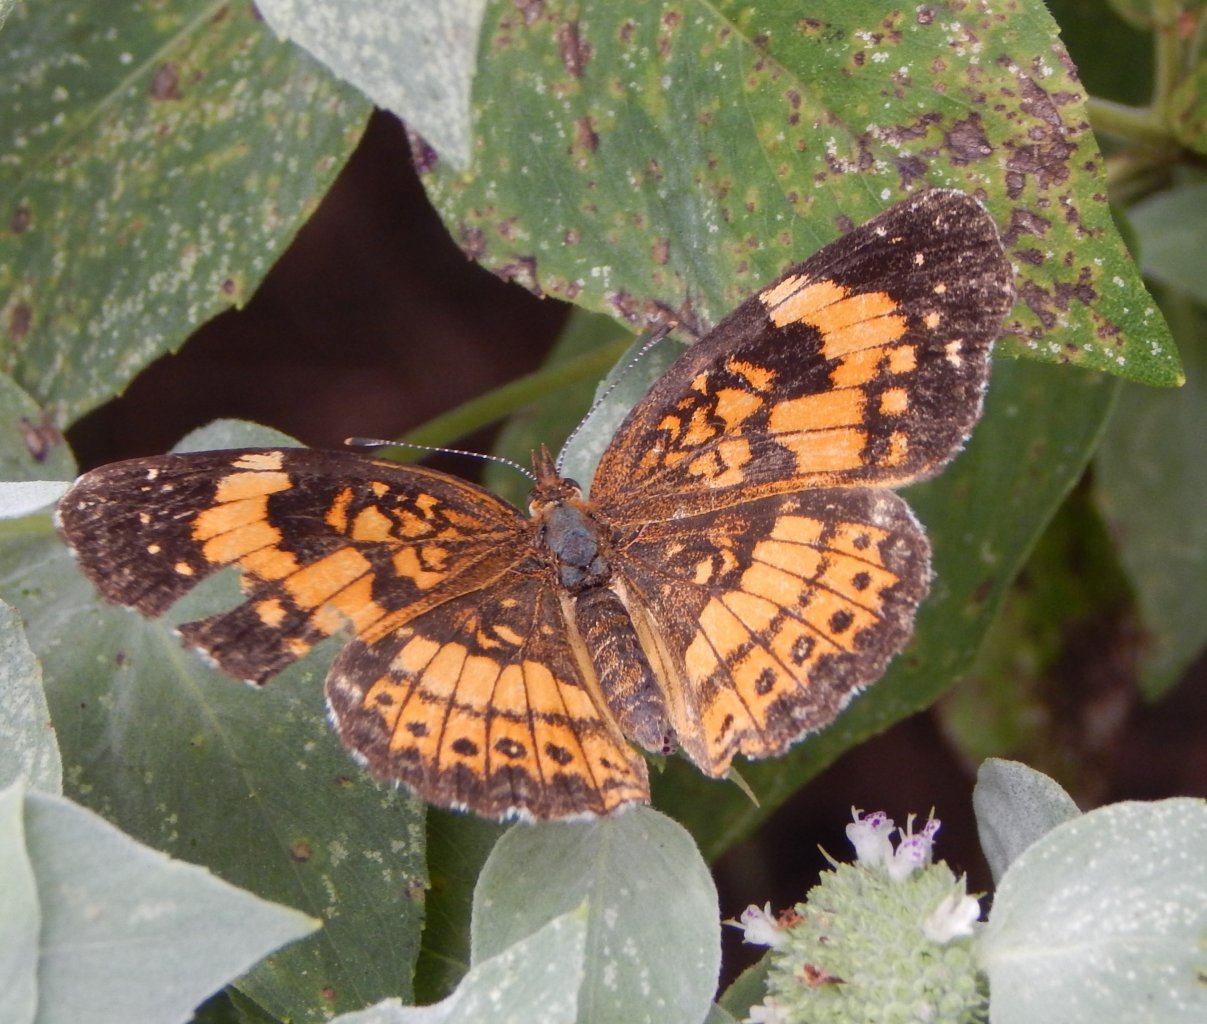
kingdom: Animalia
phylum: Arthropoda
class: Insecta
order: Lepidoptera
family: Nymphalidae
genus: Chlosyne
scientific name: Chlosyne nycteis
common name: Silvery Checkerspot
